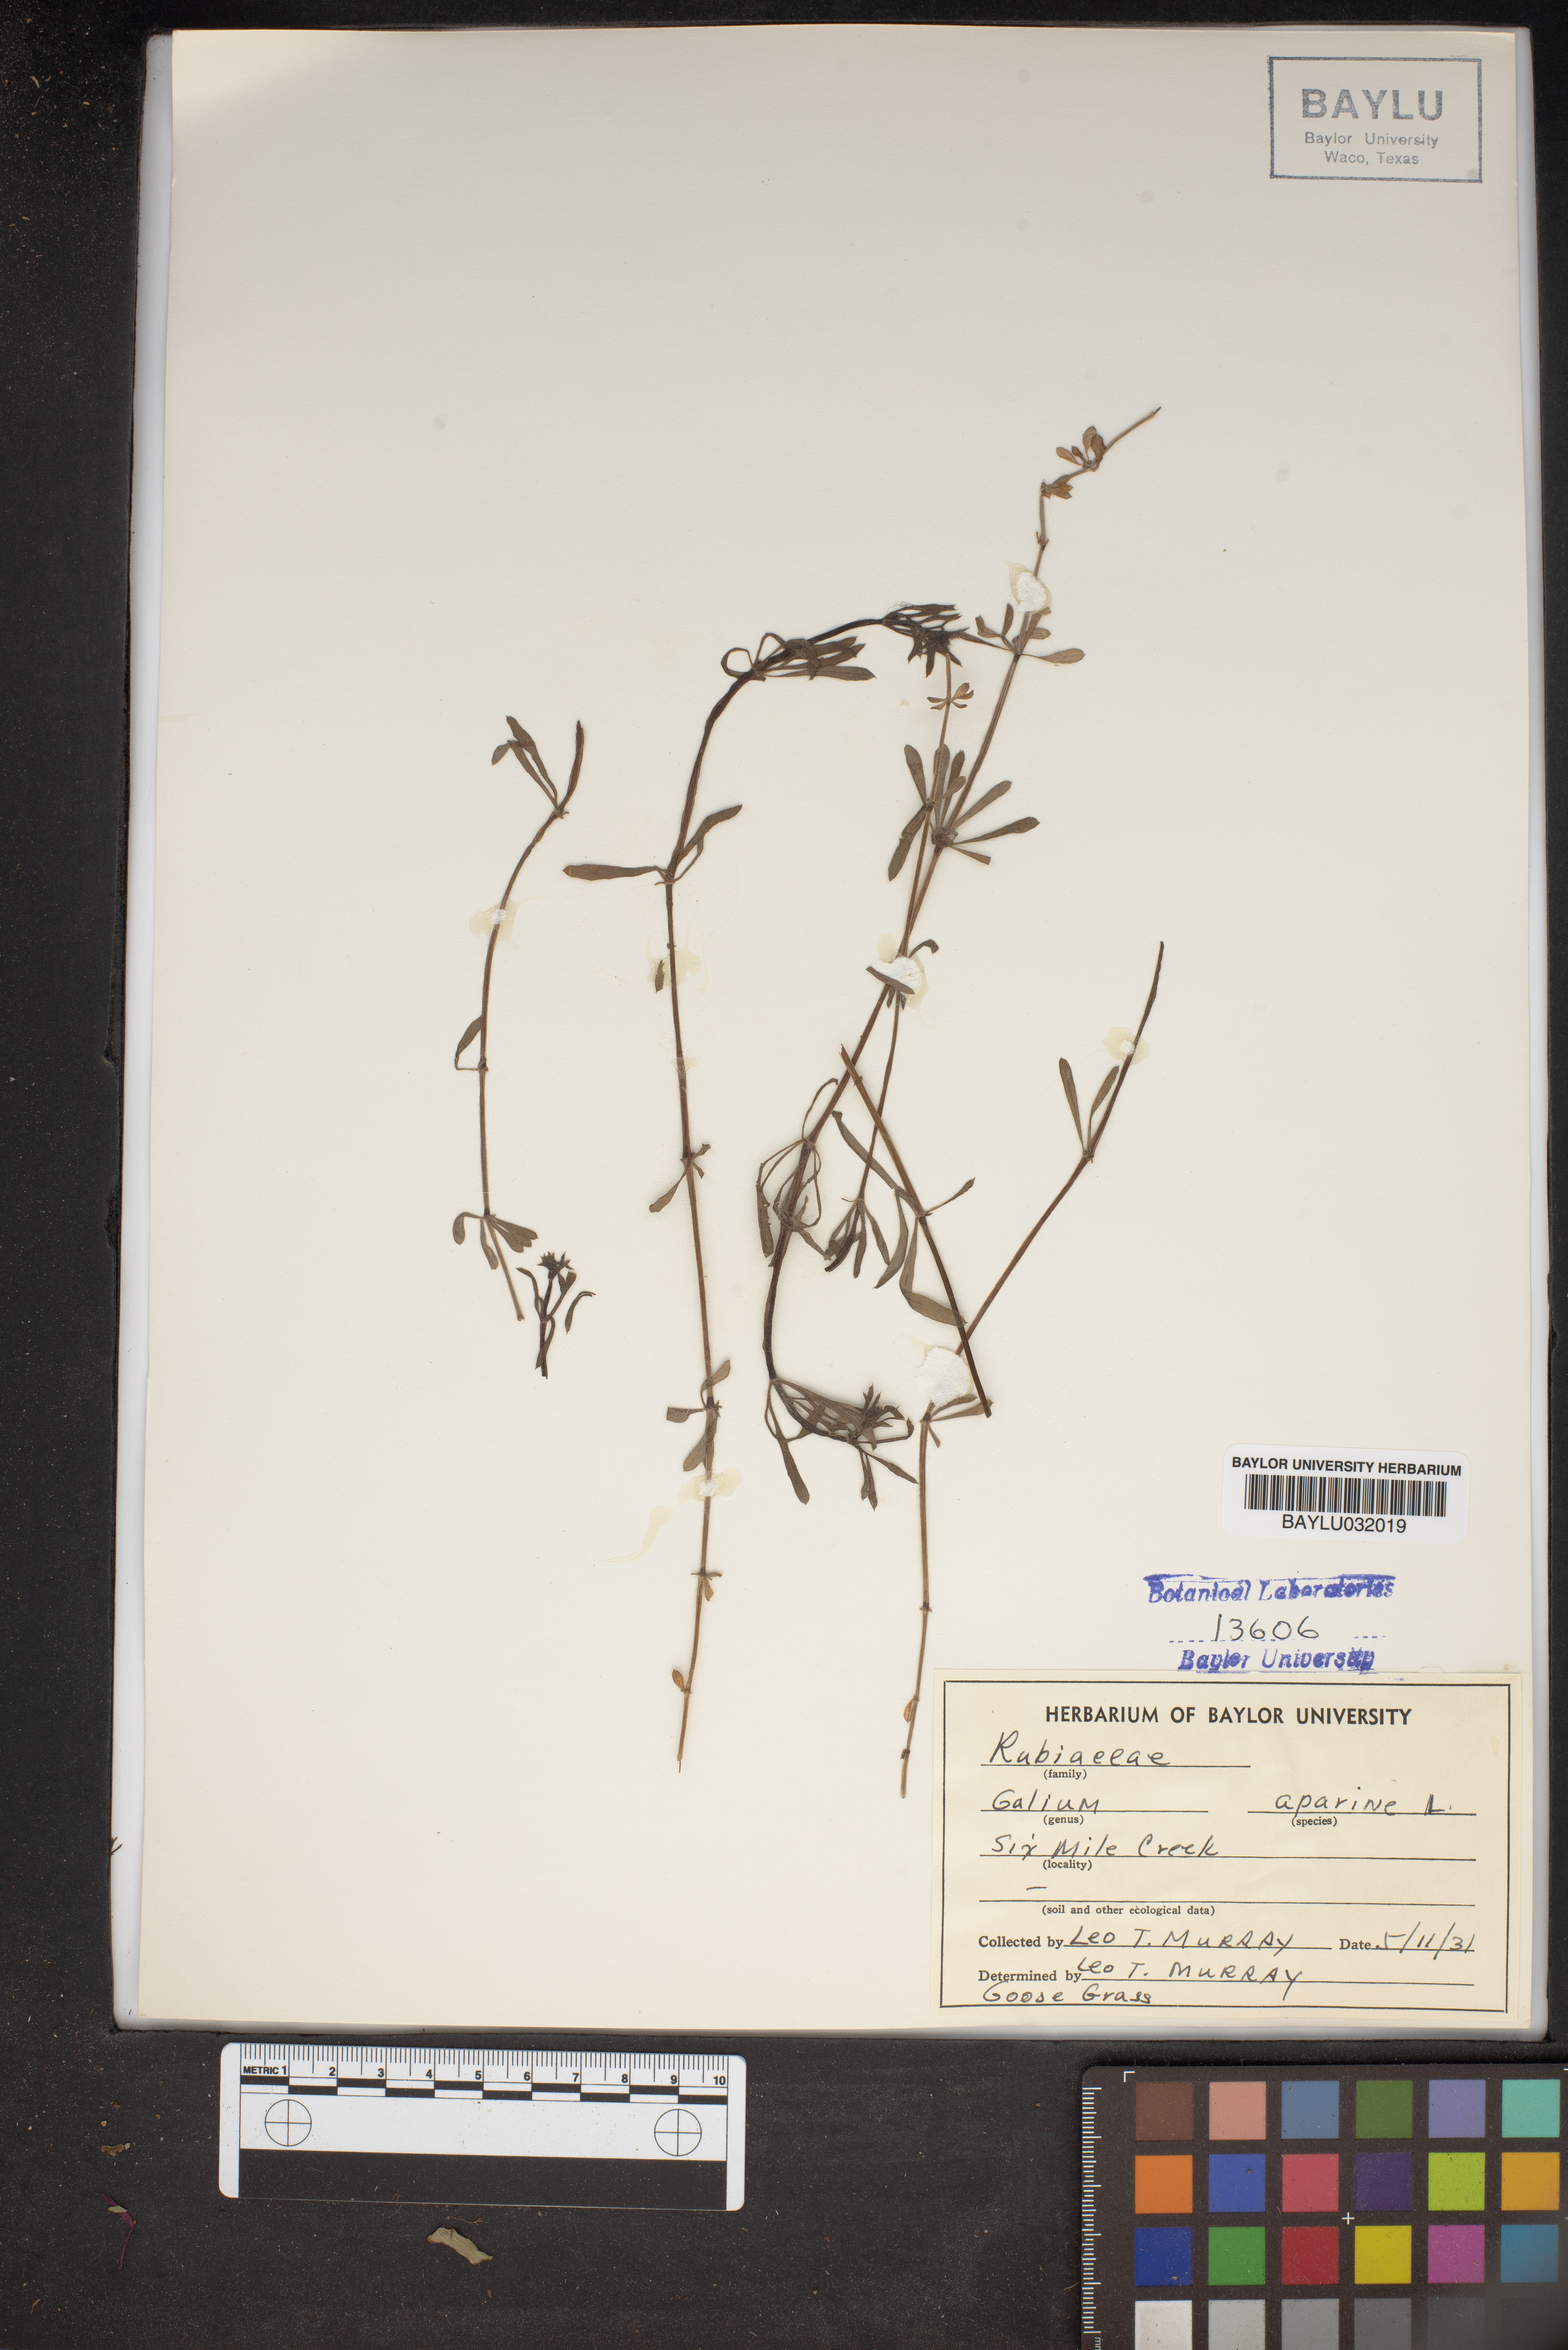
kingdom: Plantae
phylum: Tracheophyta
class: Magnoliopsida
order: Gentianales
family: Rubiaceae
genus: Galium
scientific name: Galium aparine
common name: Cleavers
